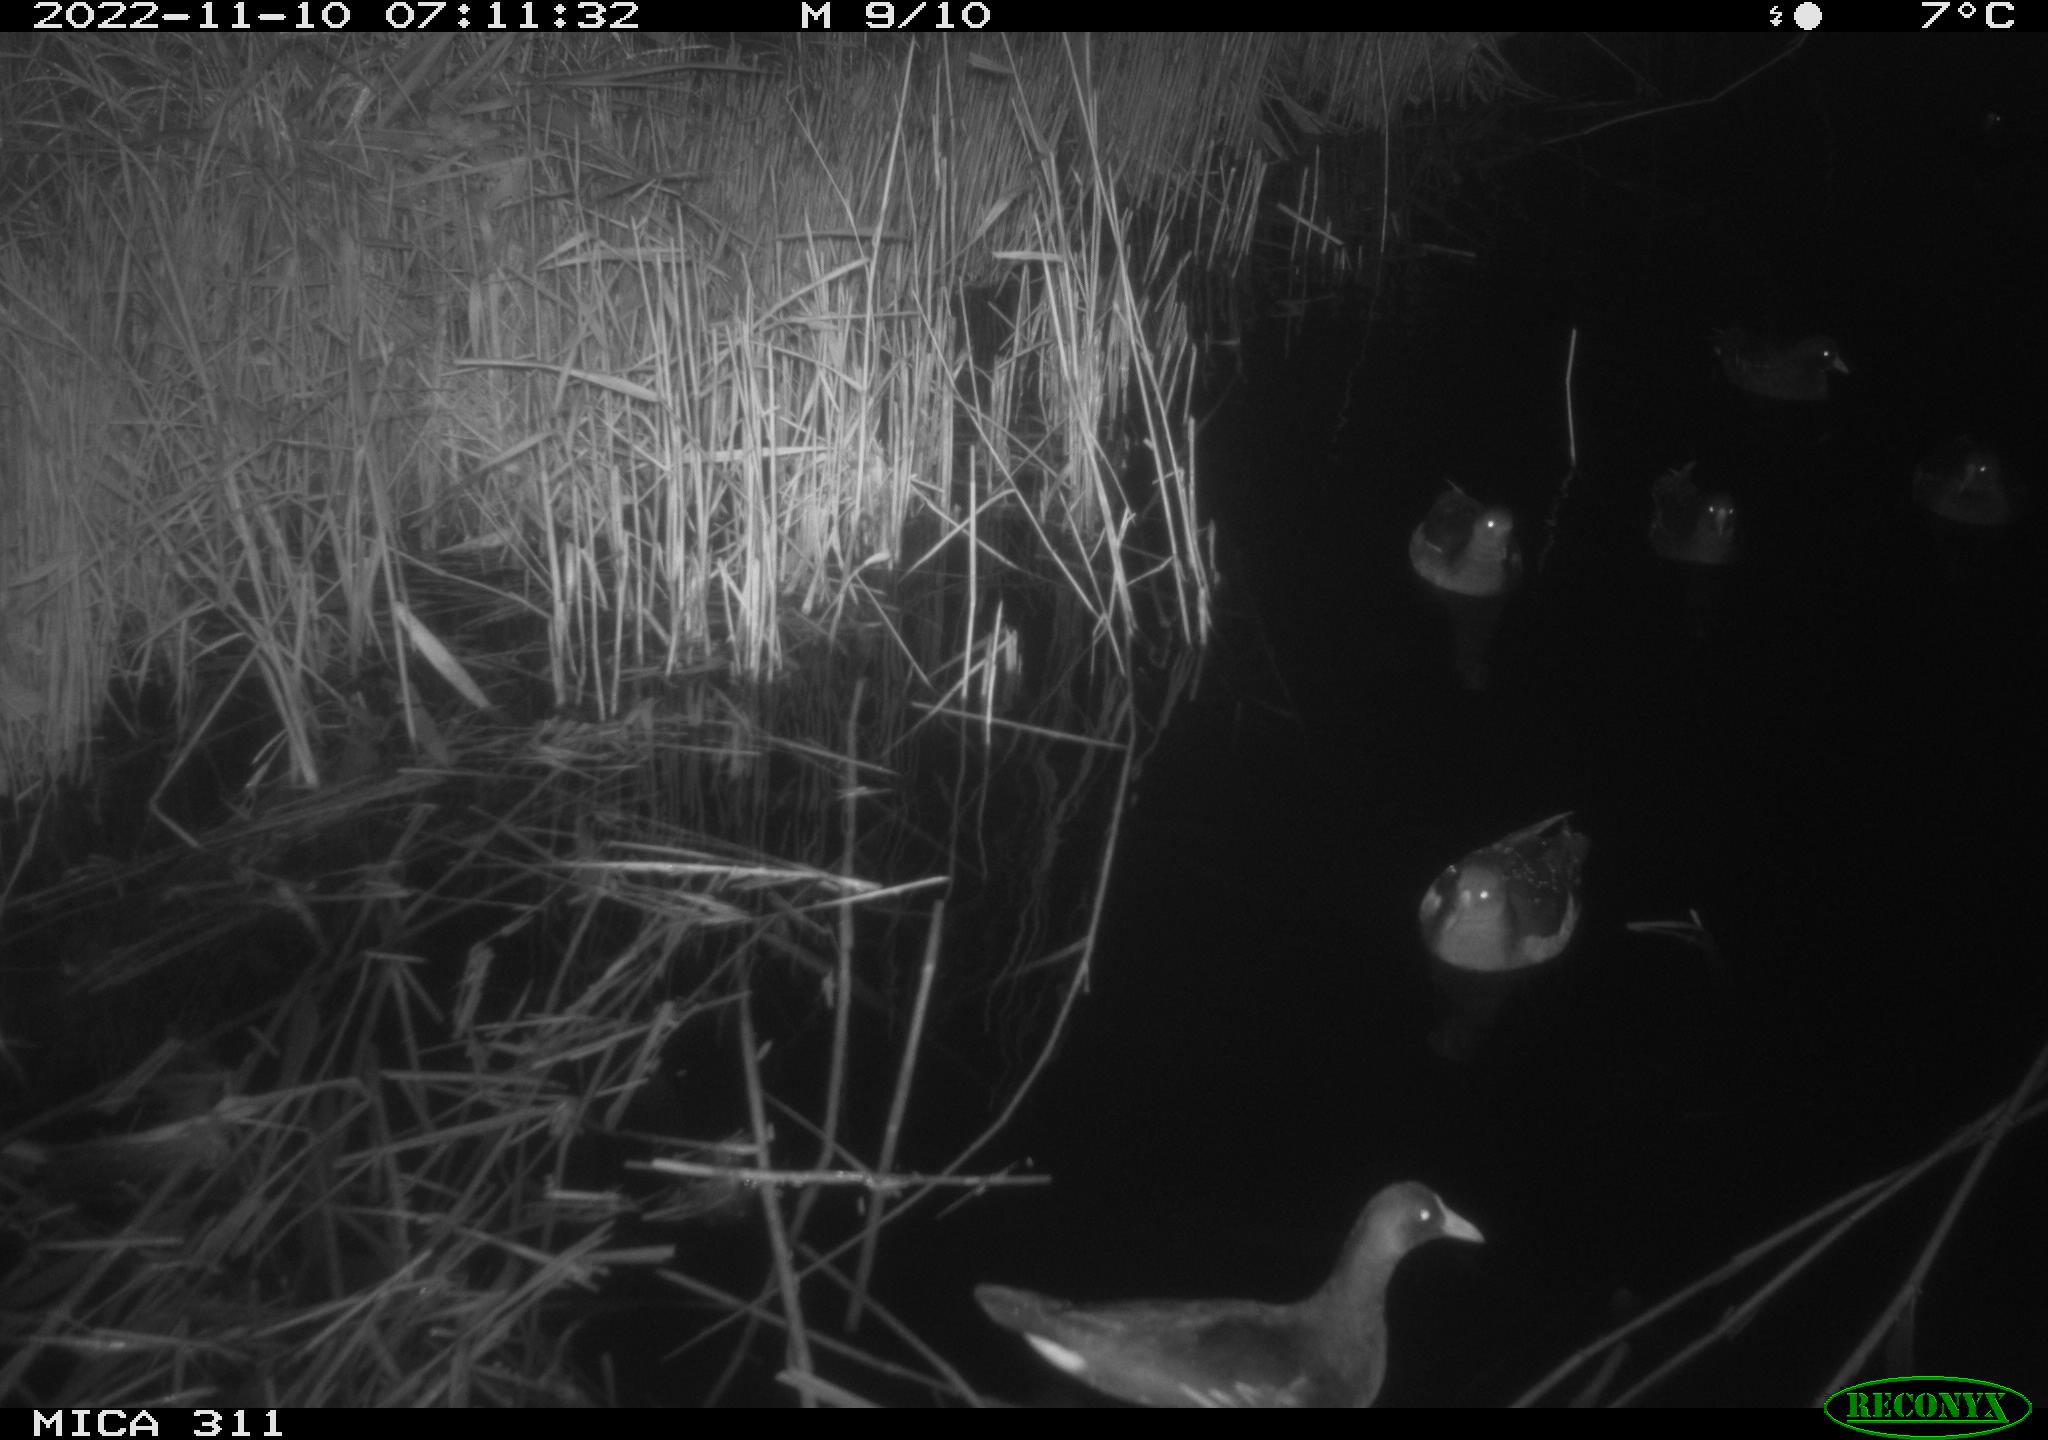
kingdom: Animalia
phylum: Chordata
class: Aves
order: Gruiformes
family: Rallidae
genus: Gallinula
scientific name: Gallinula chloropus
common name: Common moorhen
